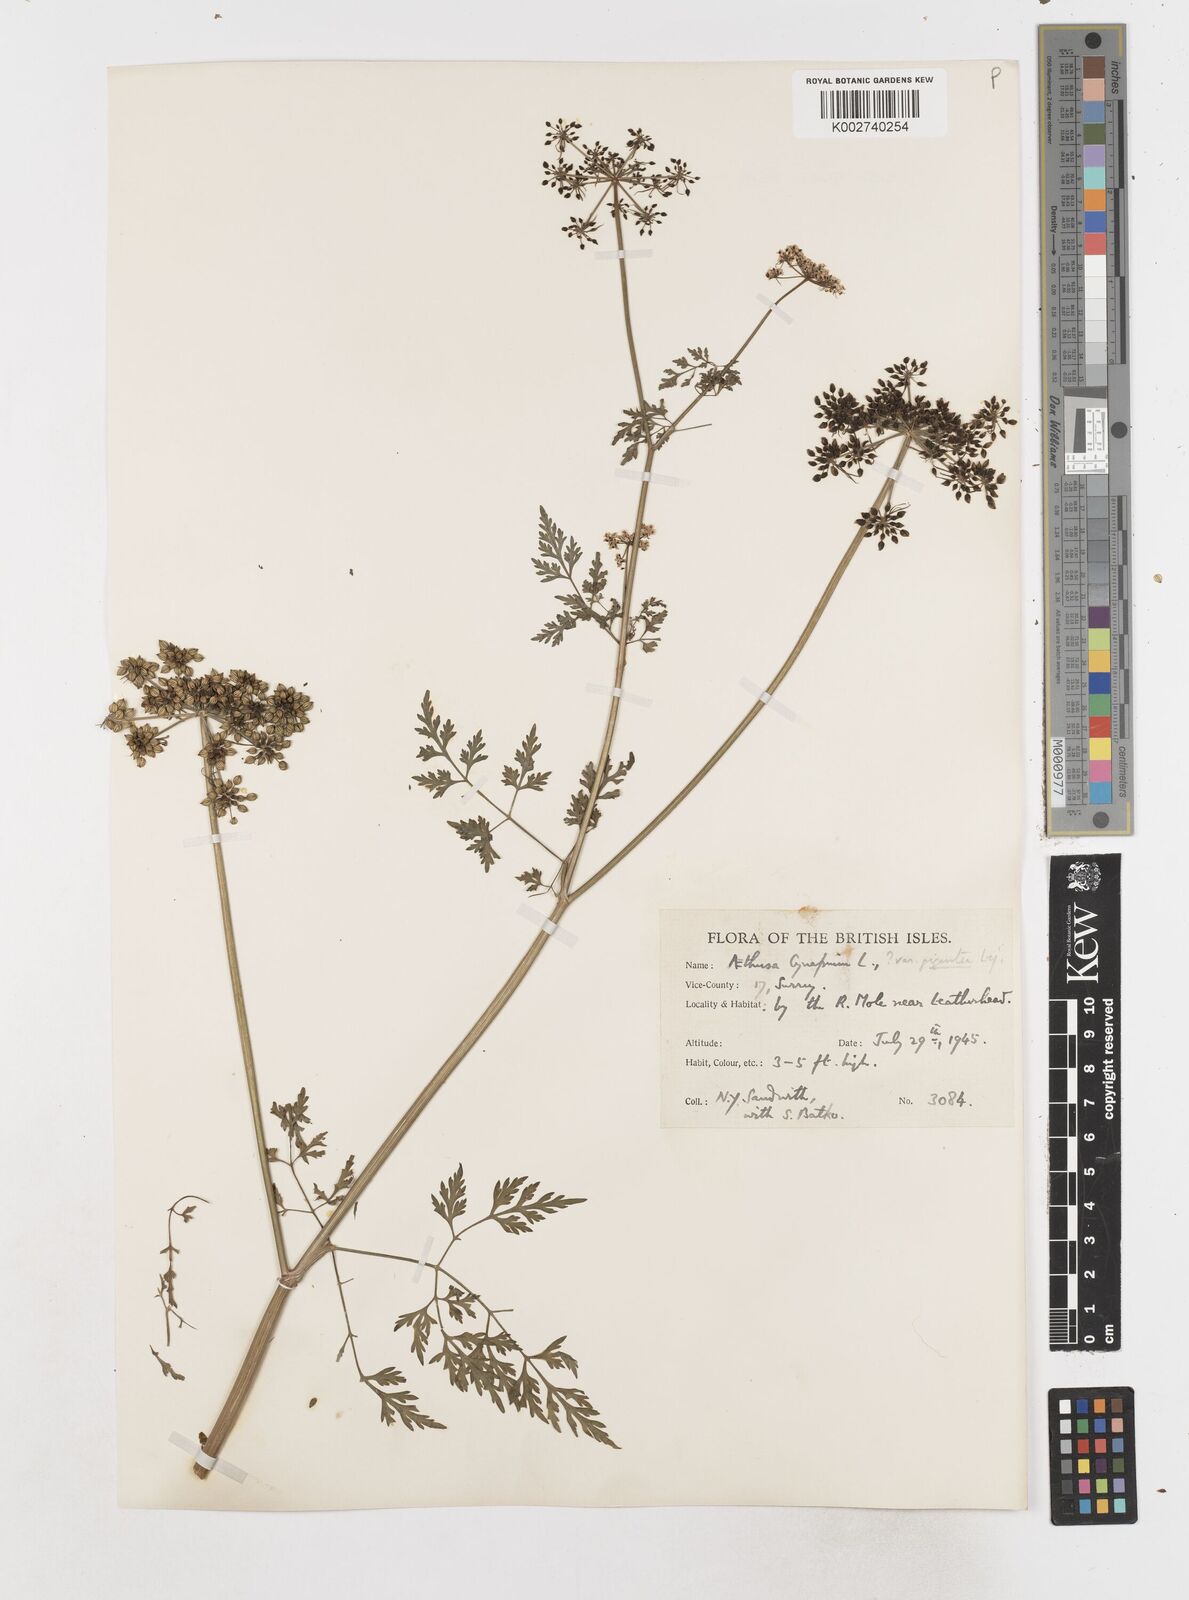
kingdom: Plantae
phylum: Tracheophyta
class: Magnoliopsida
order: Apiales
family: Apiaceae
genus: Aethusa
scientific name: Aethusa cynapium
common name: Fool's parsley
